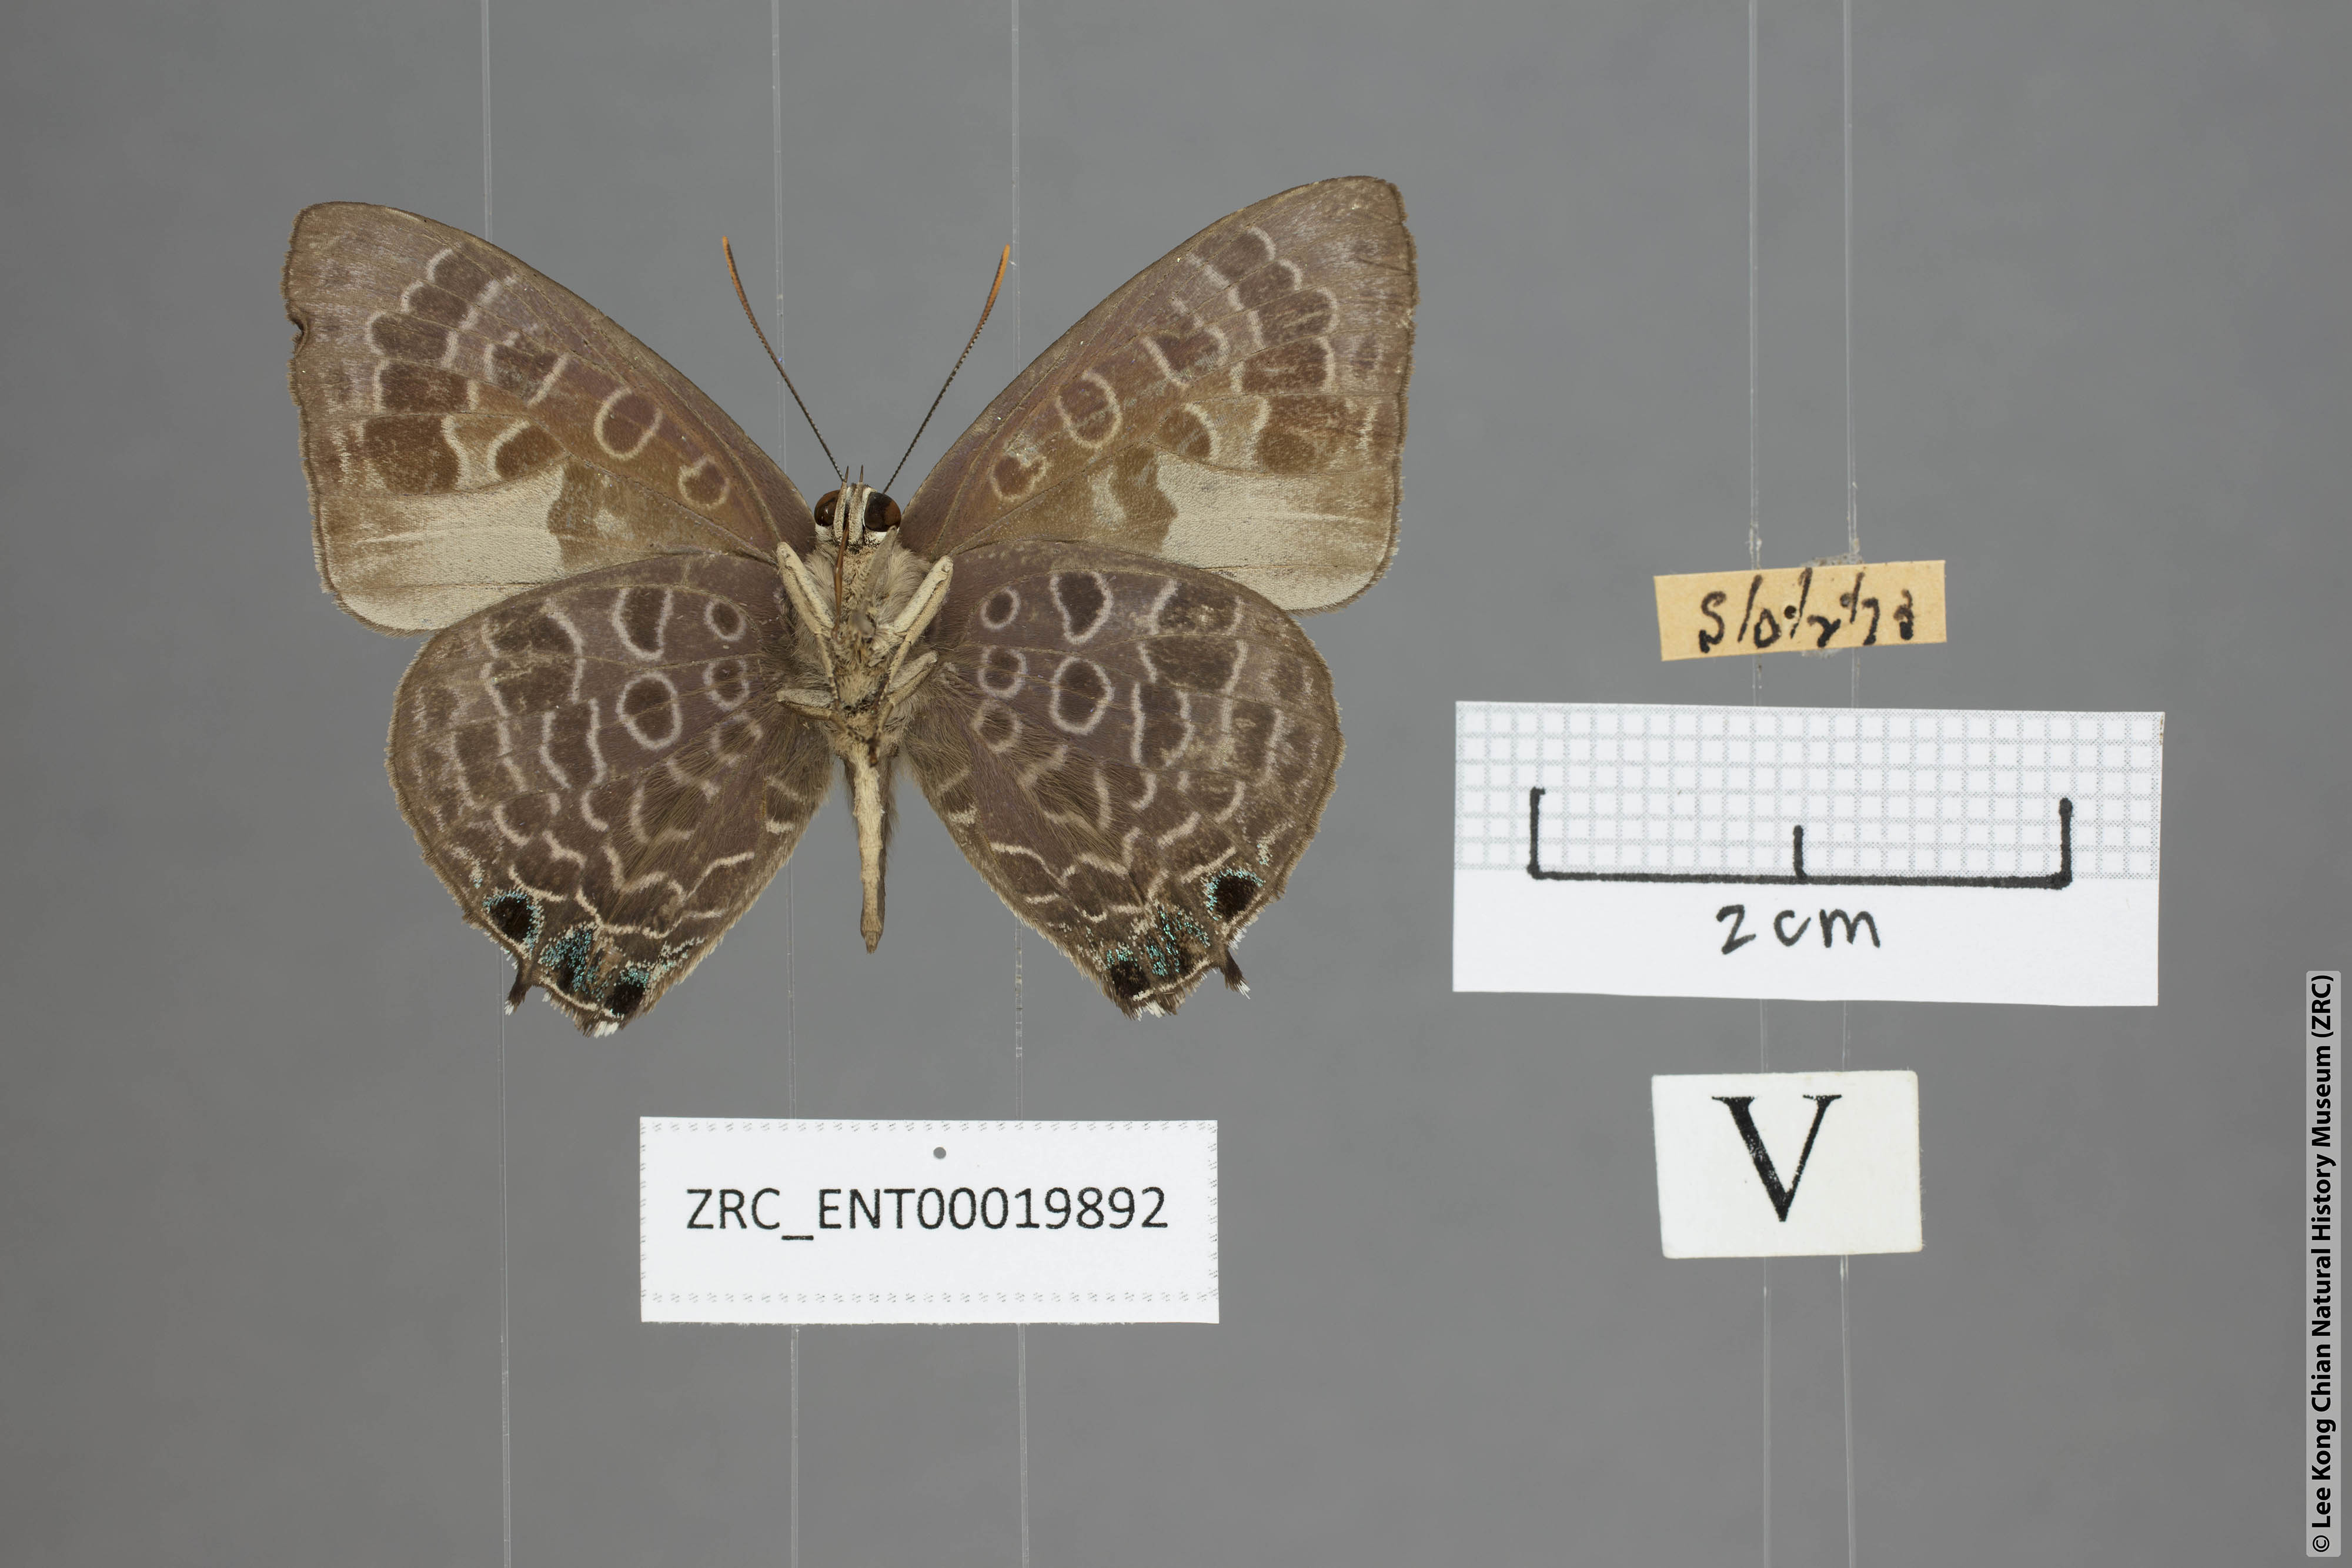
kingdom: Animalia
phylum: Arthropoda
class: Insecta
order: Lepidoptera
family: Lycaenidae
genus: Arhopala
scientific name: Arhopala trogon
